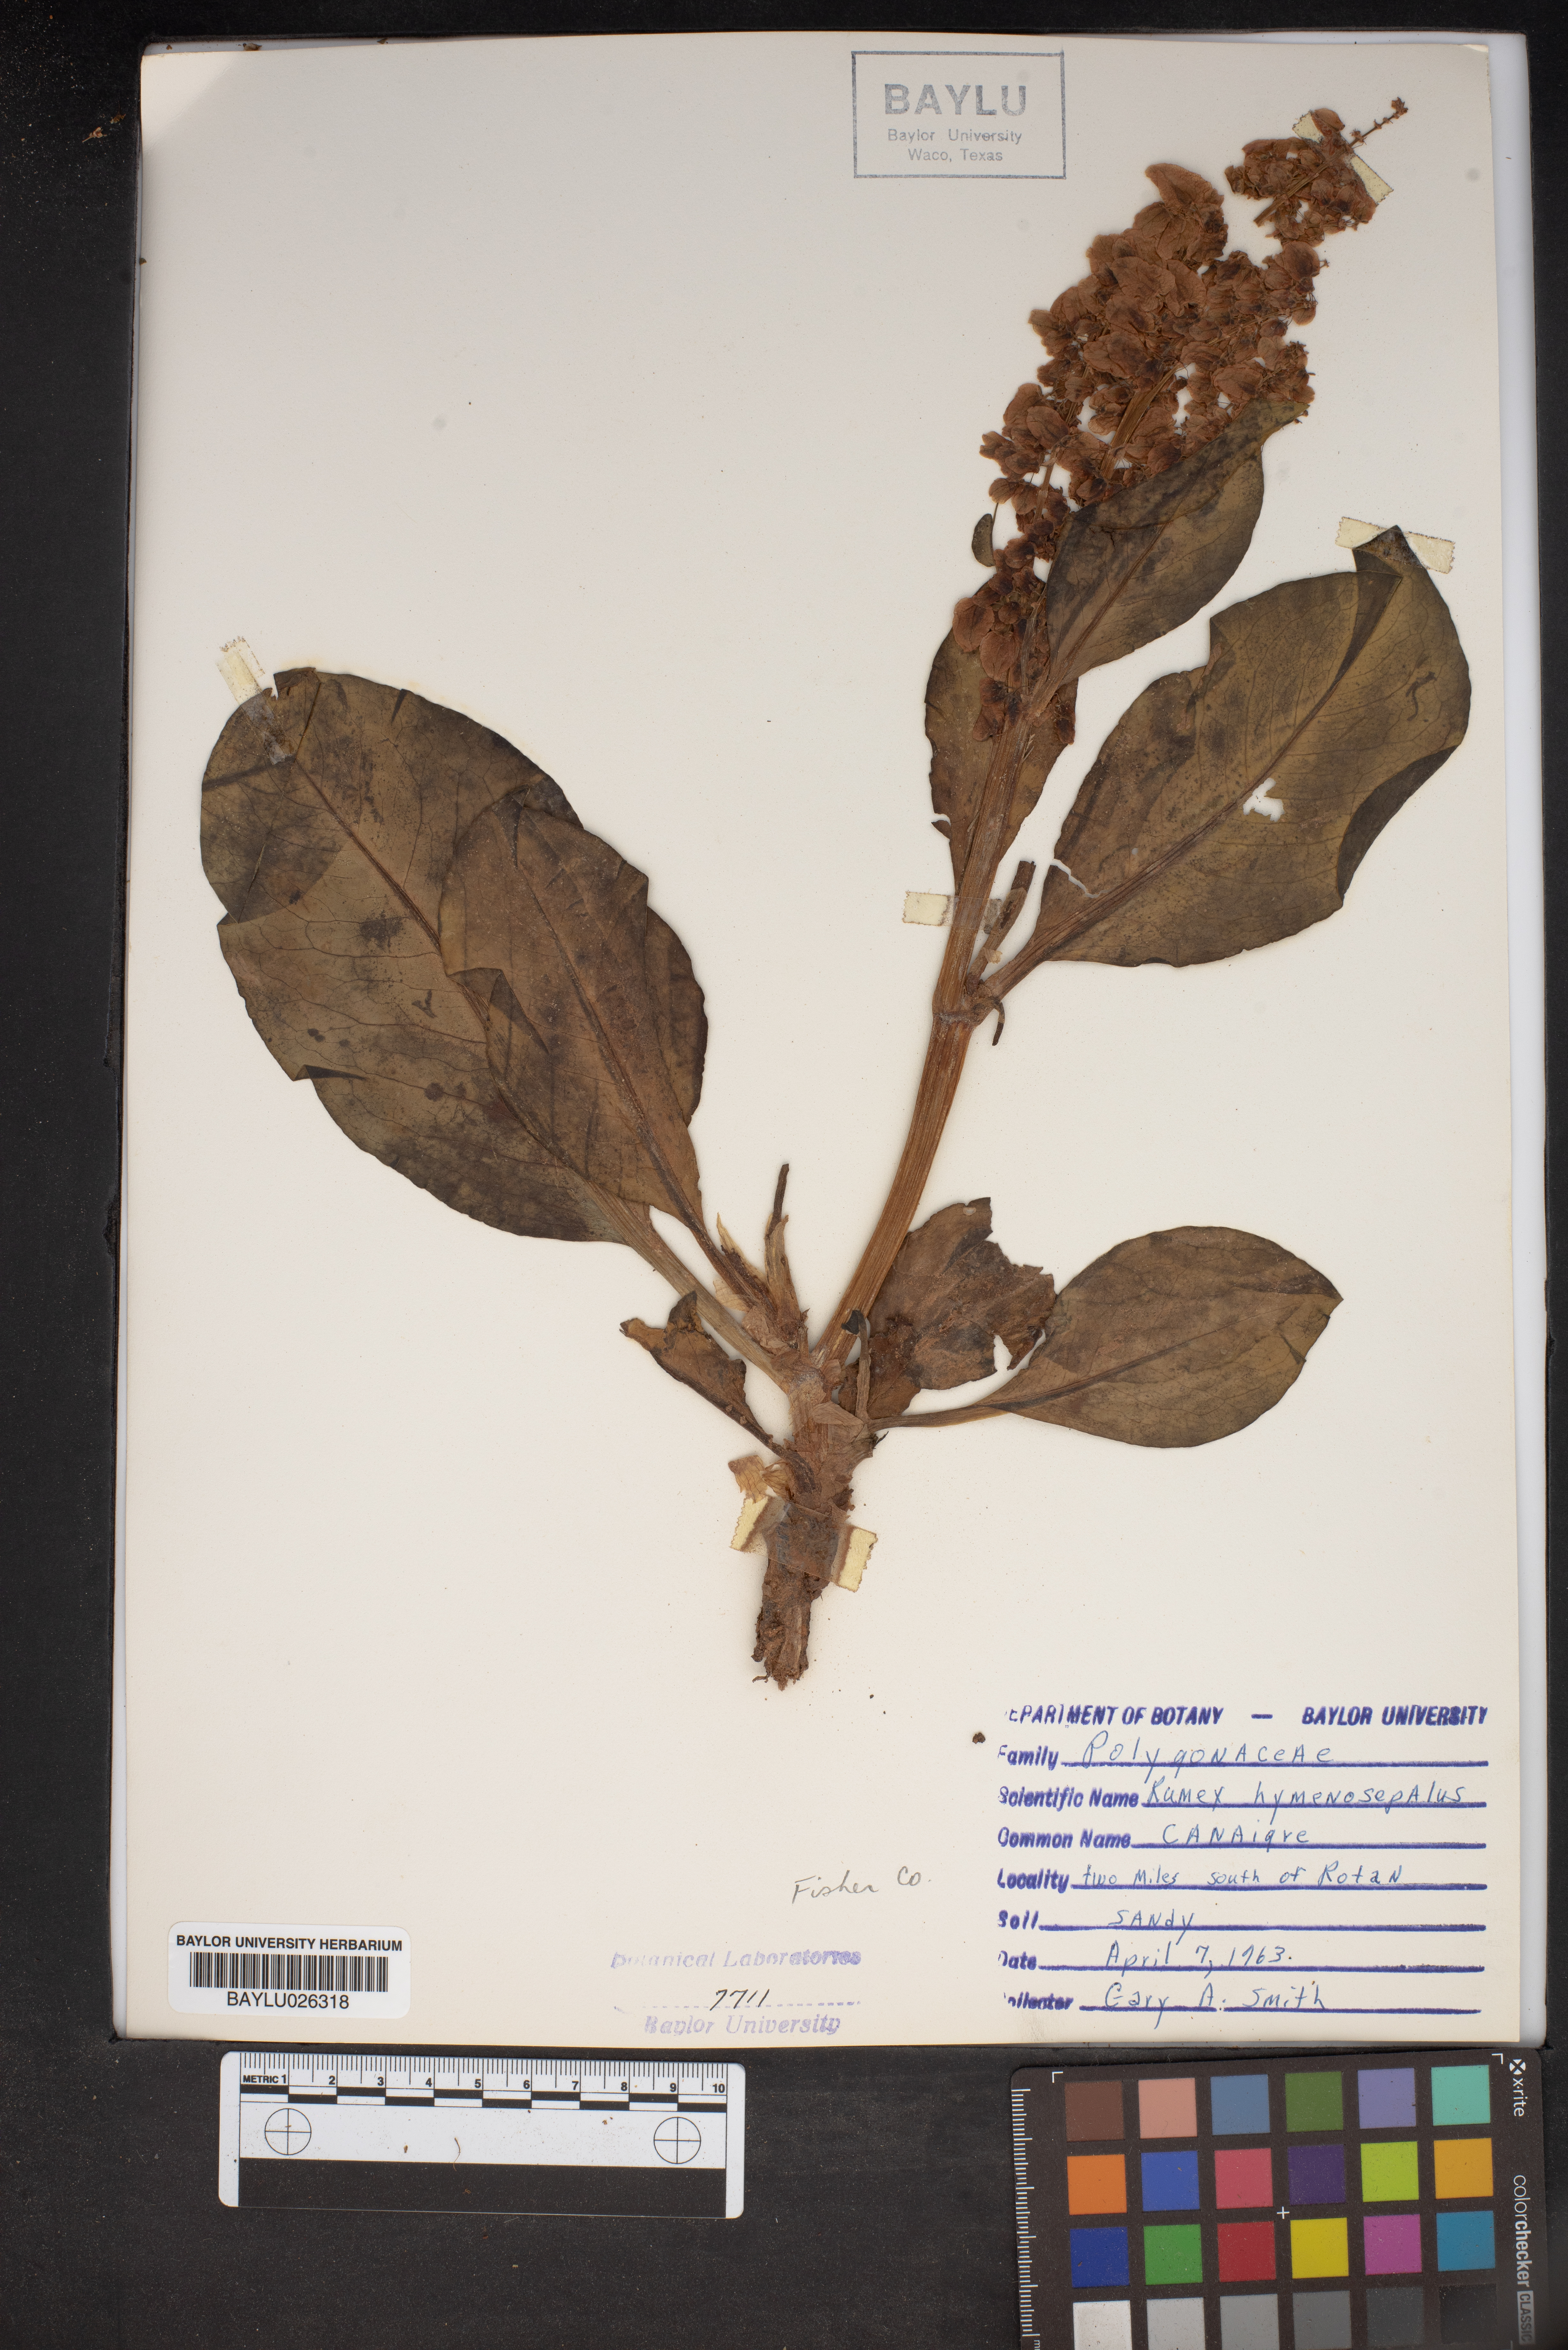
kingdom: Plantae
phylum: Tracheophyta
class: Magnoliopsida
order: Caryophyllales
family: Polygonaceae
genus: Rumex
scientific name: Rumex hymenosepalus
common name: Ganagra
